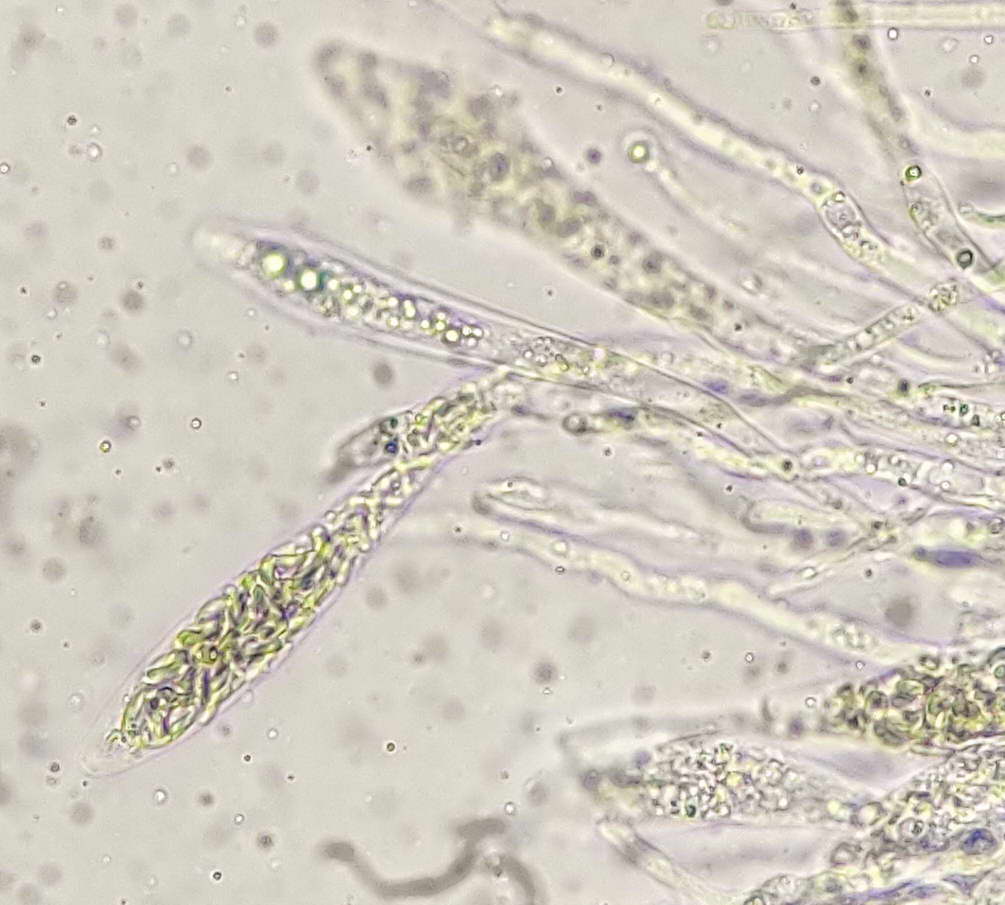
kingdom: Fungi
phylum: Ascomycota
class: Sordariomycetes
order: Xylariales
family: Diatrypaceae
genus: Diatrypella
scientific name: Diatrypella favacea
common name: klemt kulskorpe
